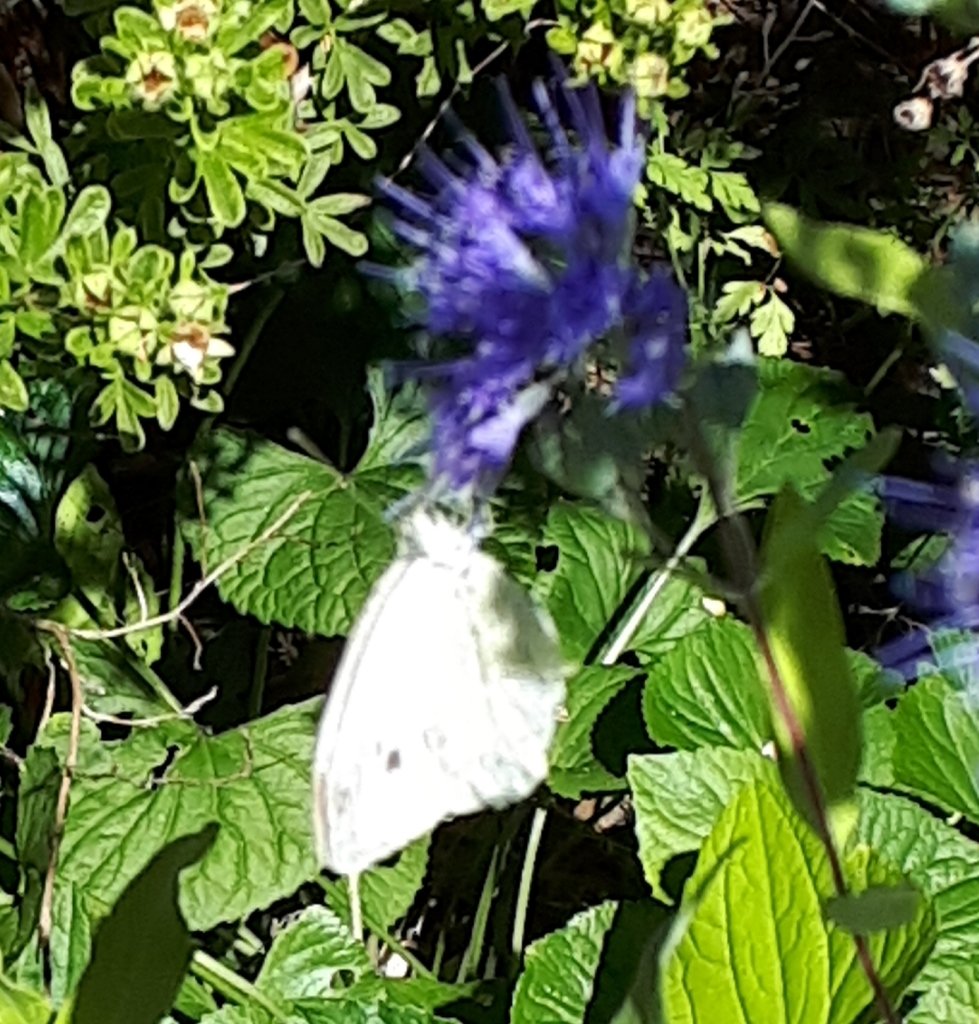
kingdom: Animalia
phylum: Arthropoda
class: Insecta
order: Lepidoptera
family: Pieridae
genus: Pieris
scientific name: Pieris rapae
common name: Cabbage White
